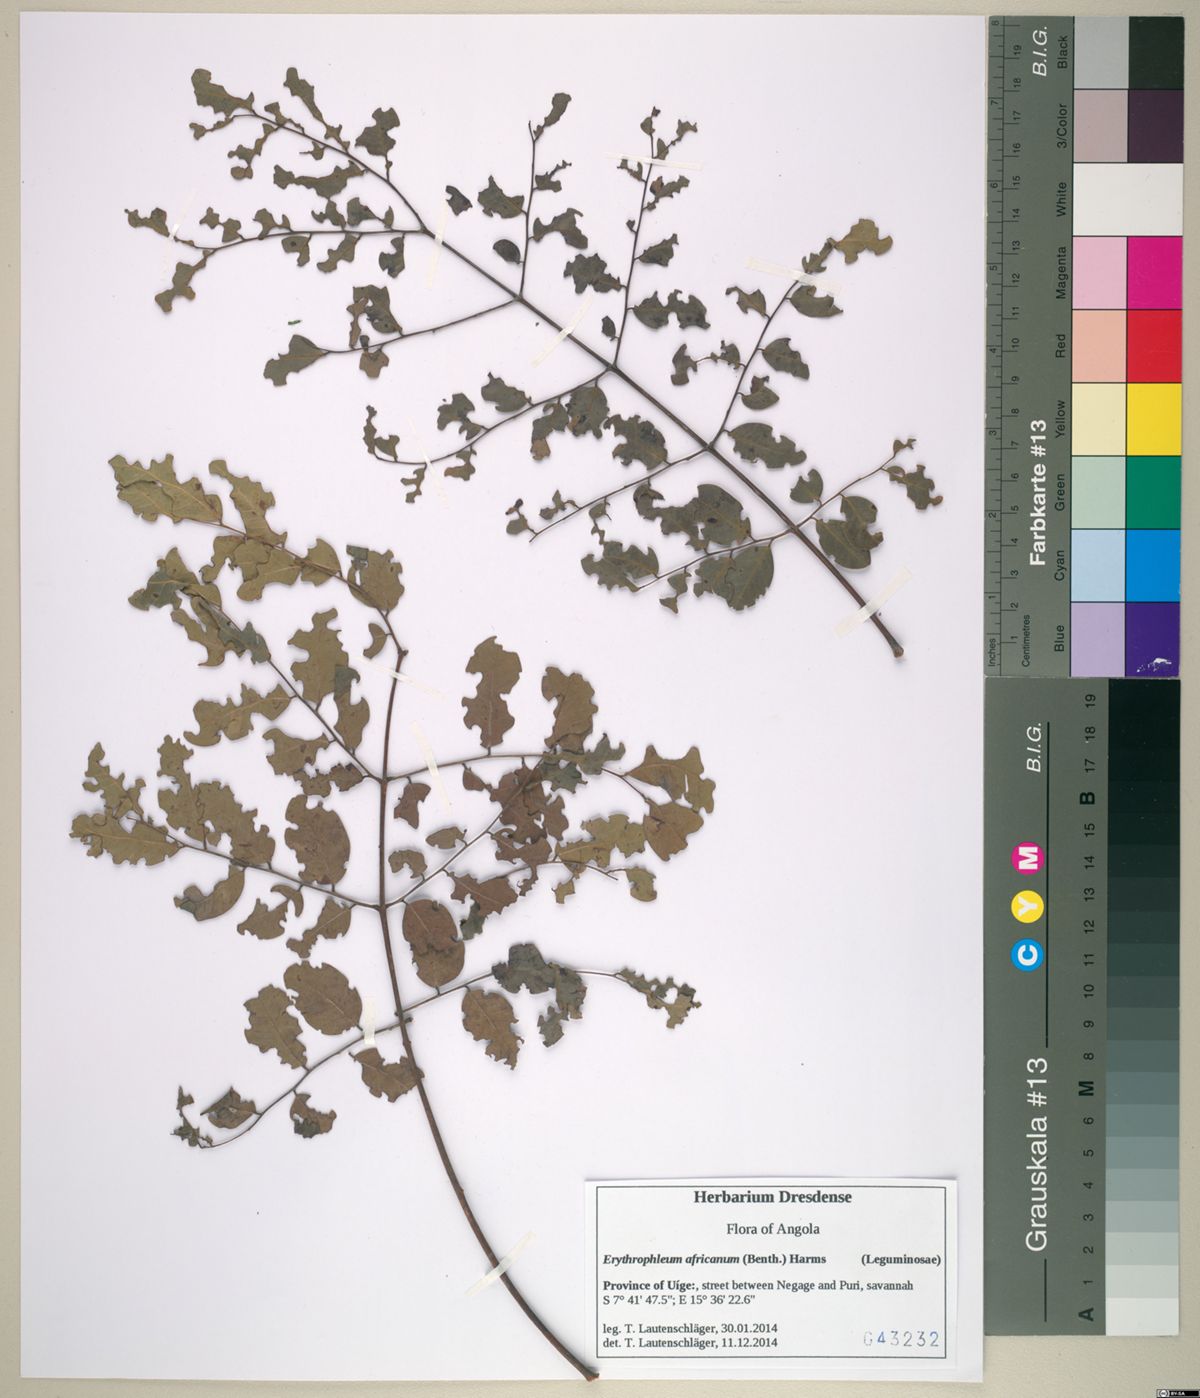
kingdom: Plantae
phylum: Tracheophyta
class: Magnoliopsida
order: Fabales
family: Fabaceae
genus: Erythrophleum
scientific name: Erythrophleum africanum
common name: African blackwood
